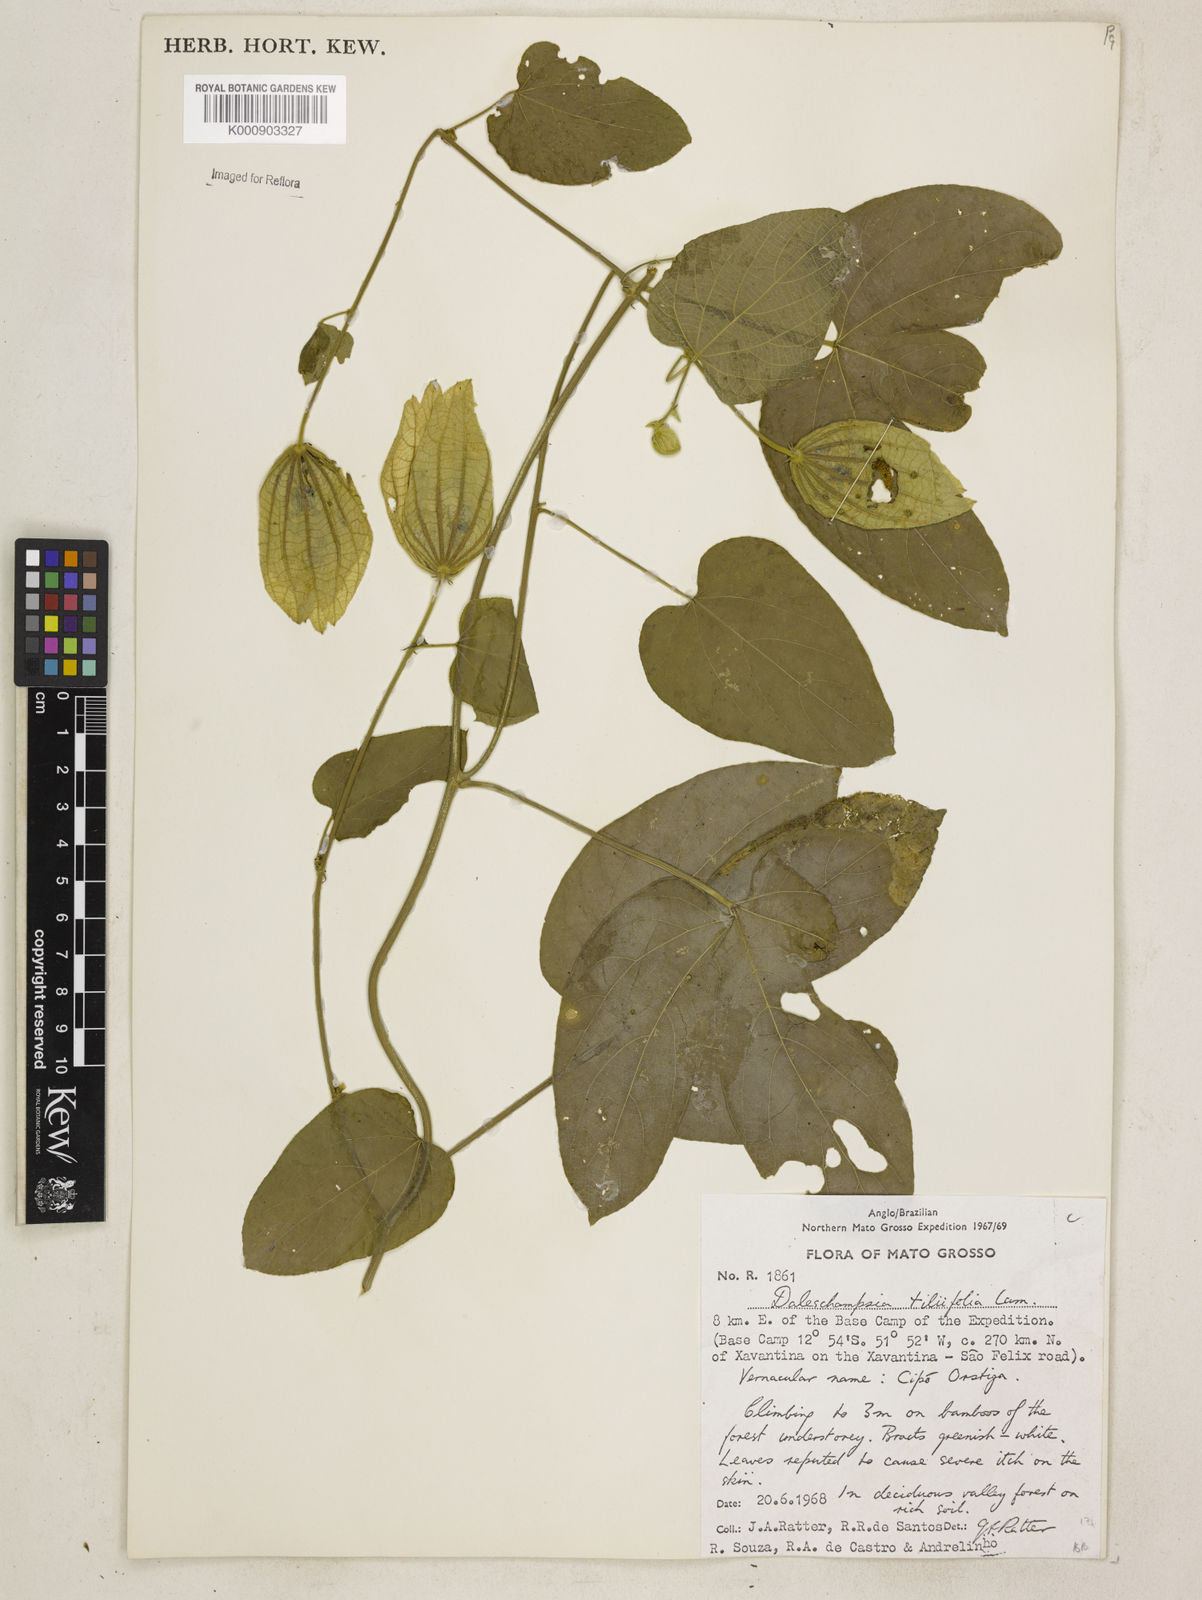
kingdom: Plantae
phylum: Tracheophyta
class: Magnoliopsida
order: Malpighiales
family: Euphorbiaceae
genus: Dalechampia
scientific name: Dalechampia tiliifolia
